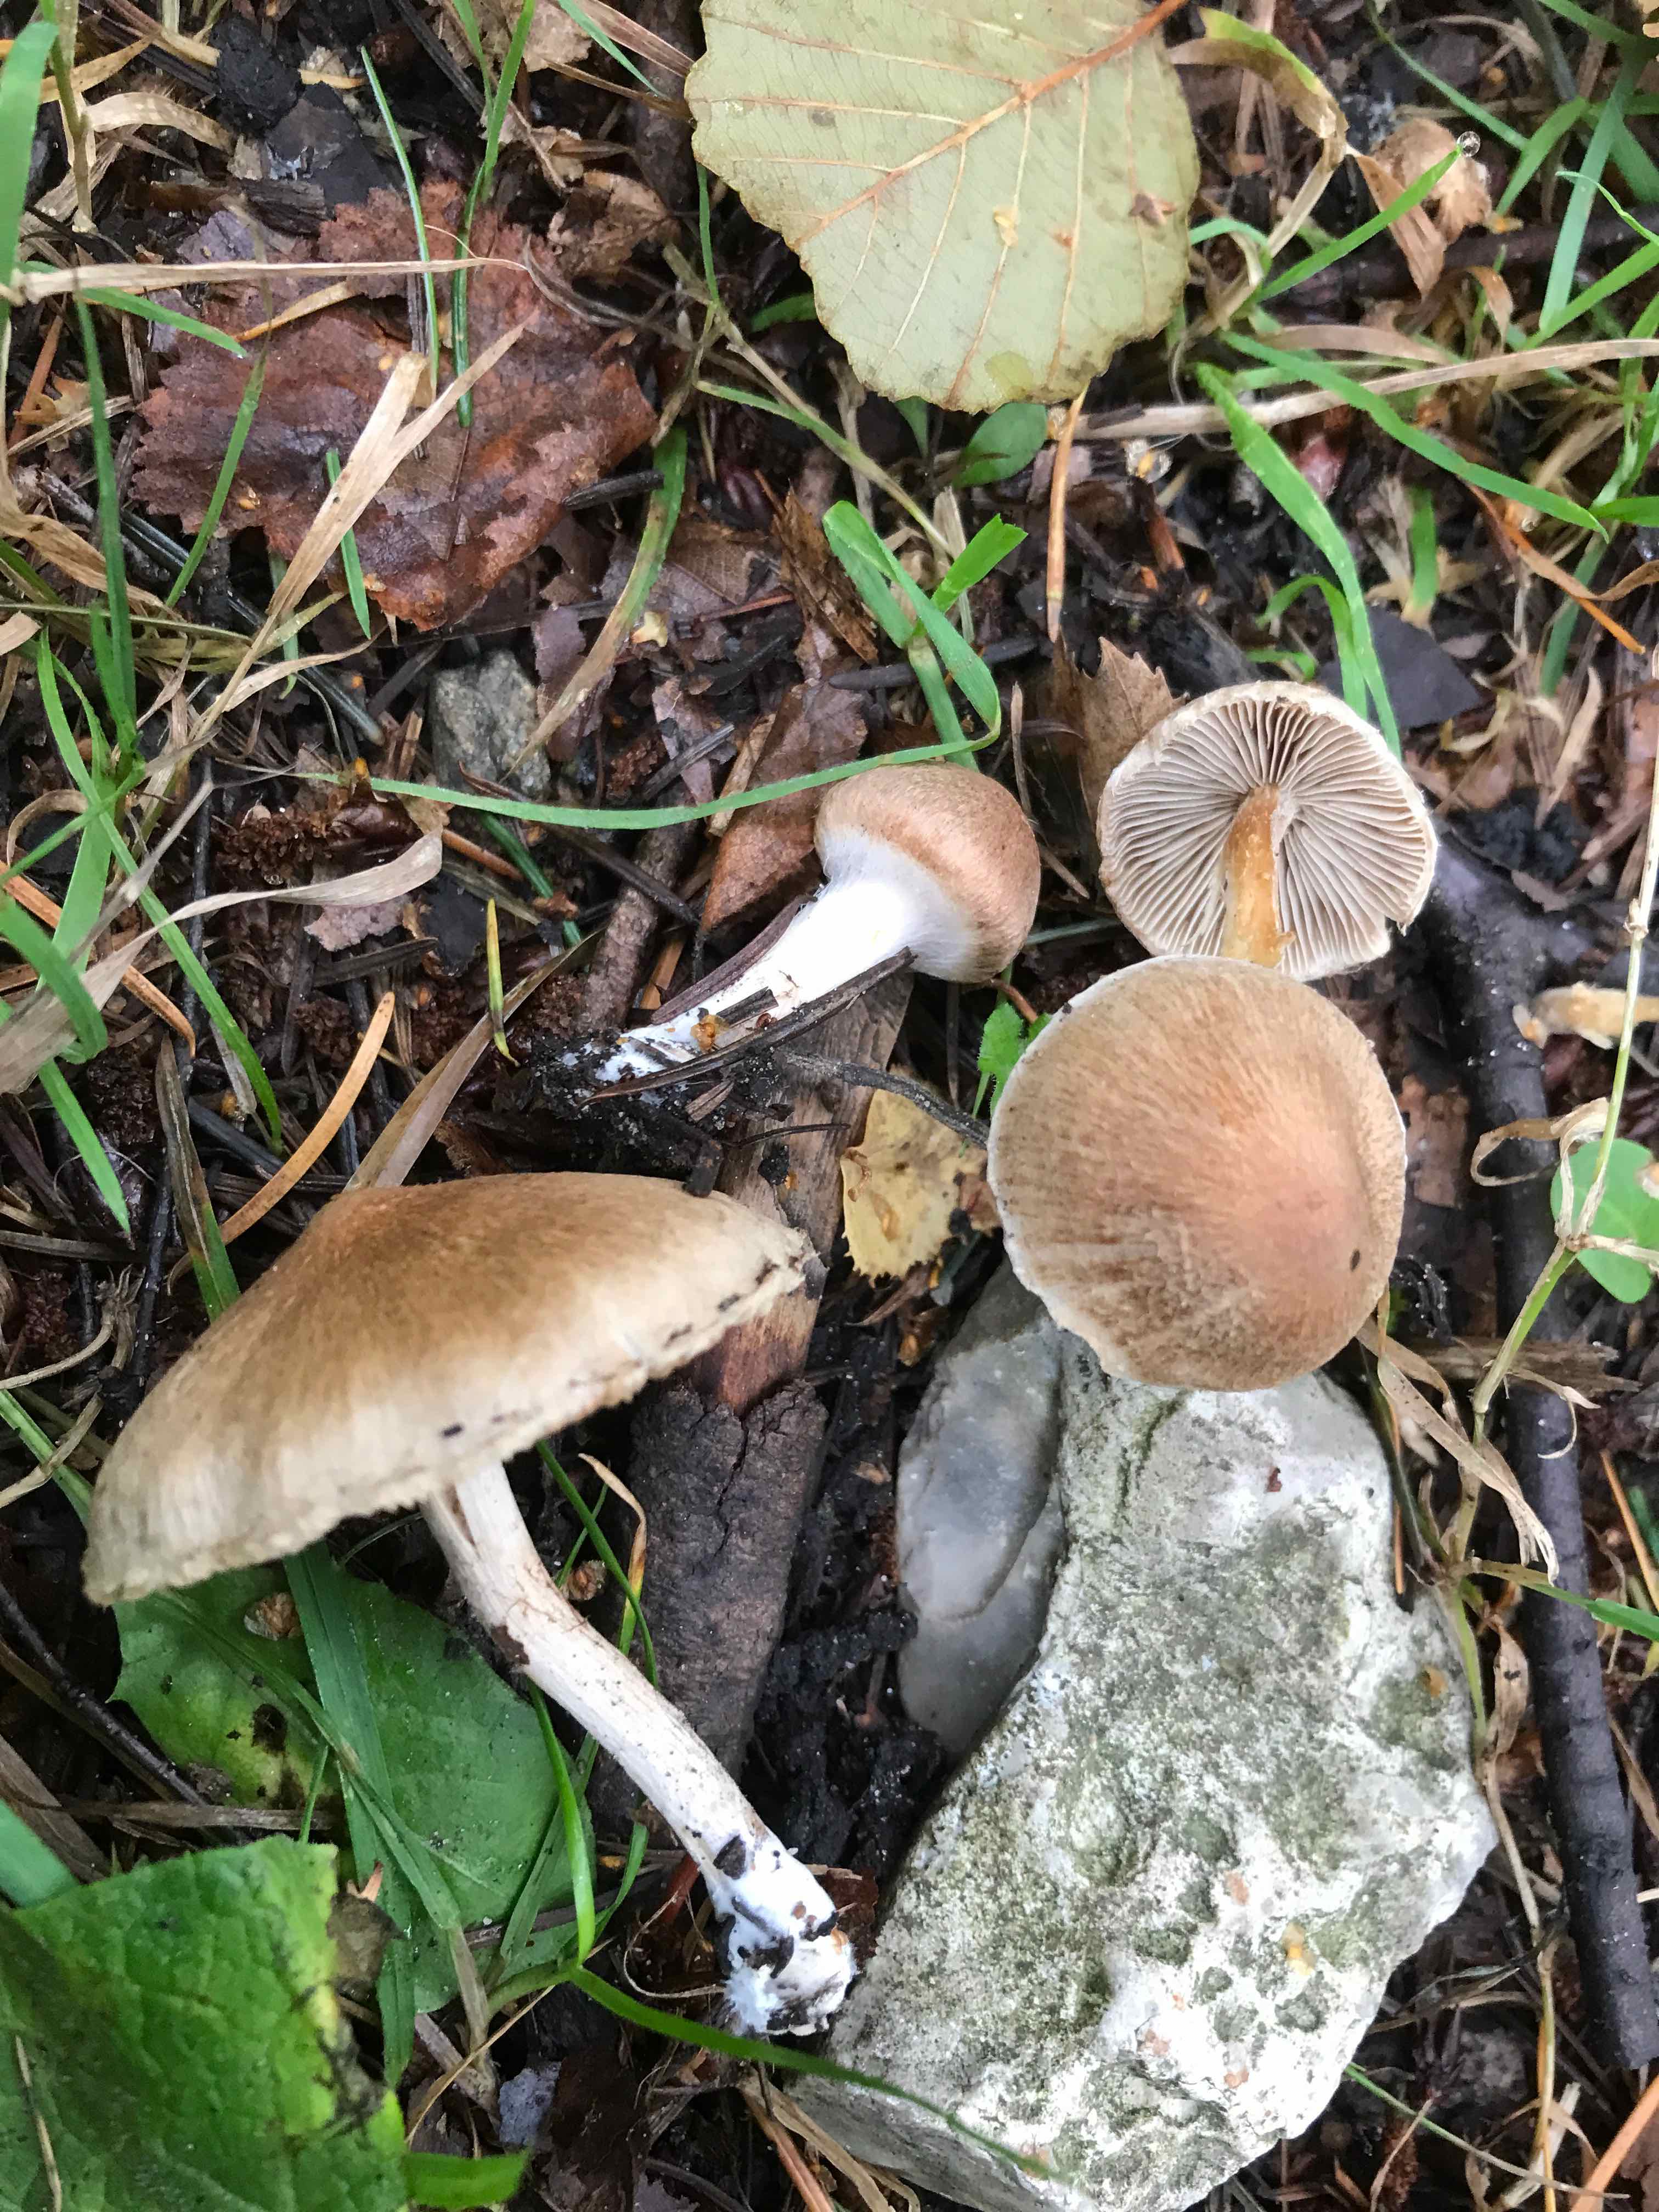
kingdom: Fungi
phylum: Basidiomycota
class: Agaricomycetes
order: Agaricales
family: Inocybaceae
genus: Inocybe
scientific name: Inocybe
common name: trævlhat
